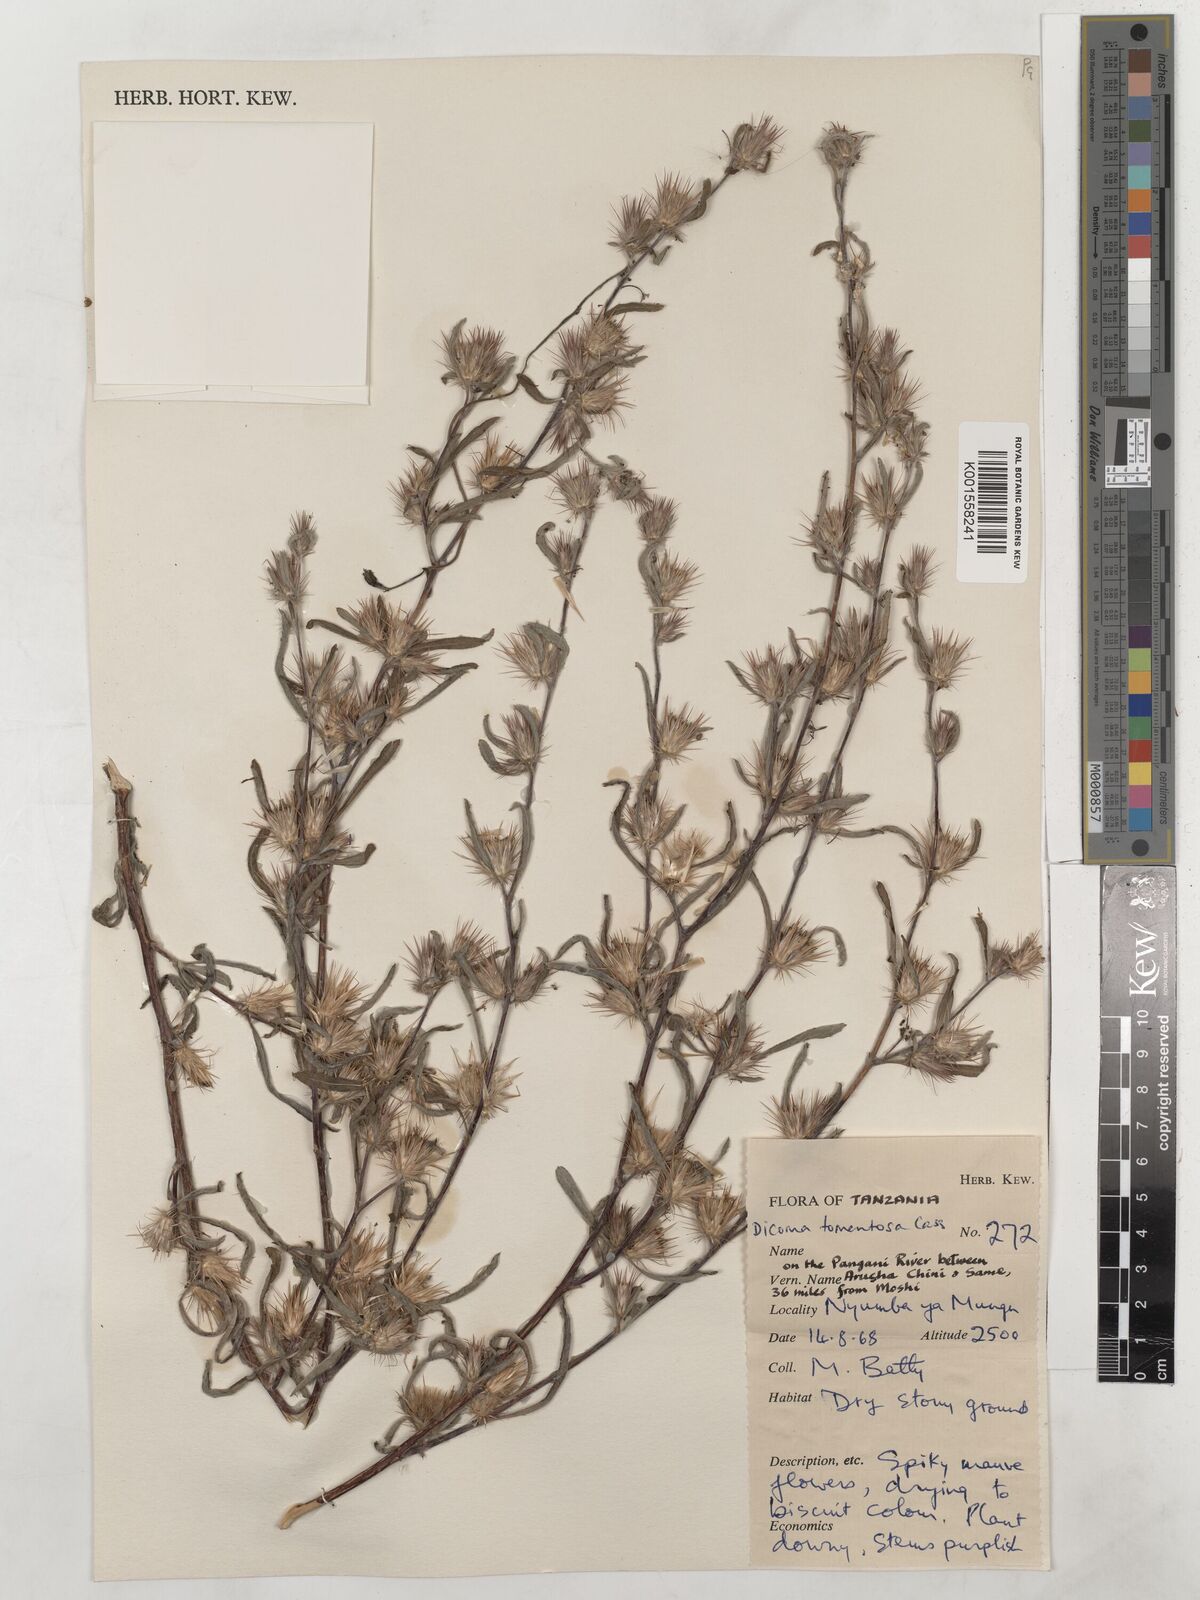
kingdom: Plantae
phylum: Tracheophyta
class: Magnoliopsida
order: Asterales
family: Asteraceae
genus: Dicoma
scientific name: Dicoma tomentosa
